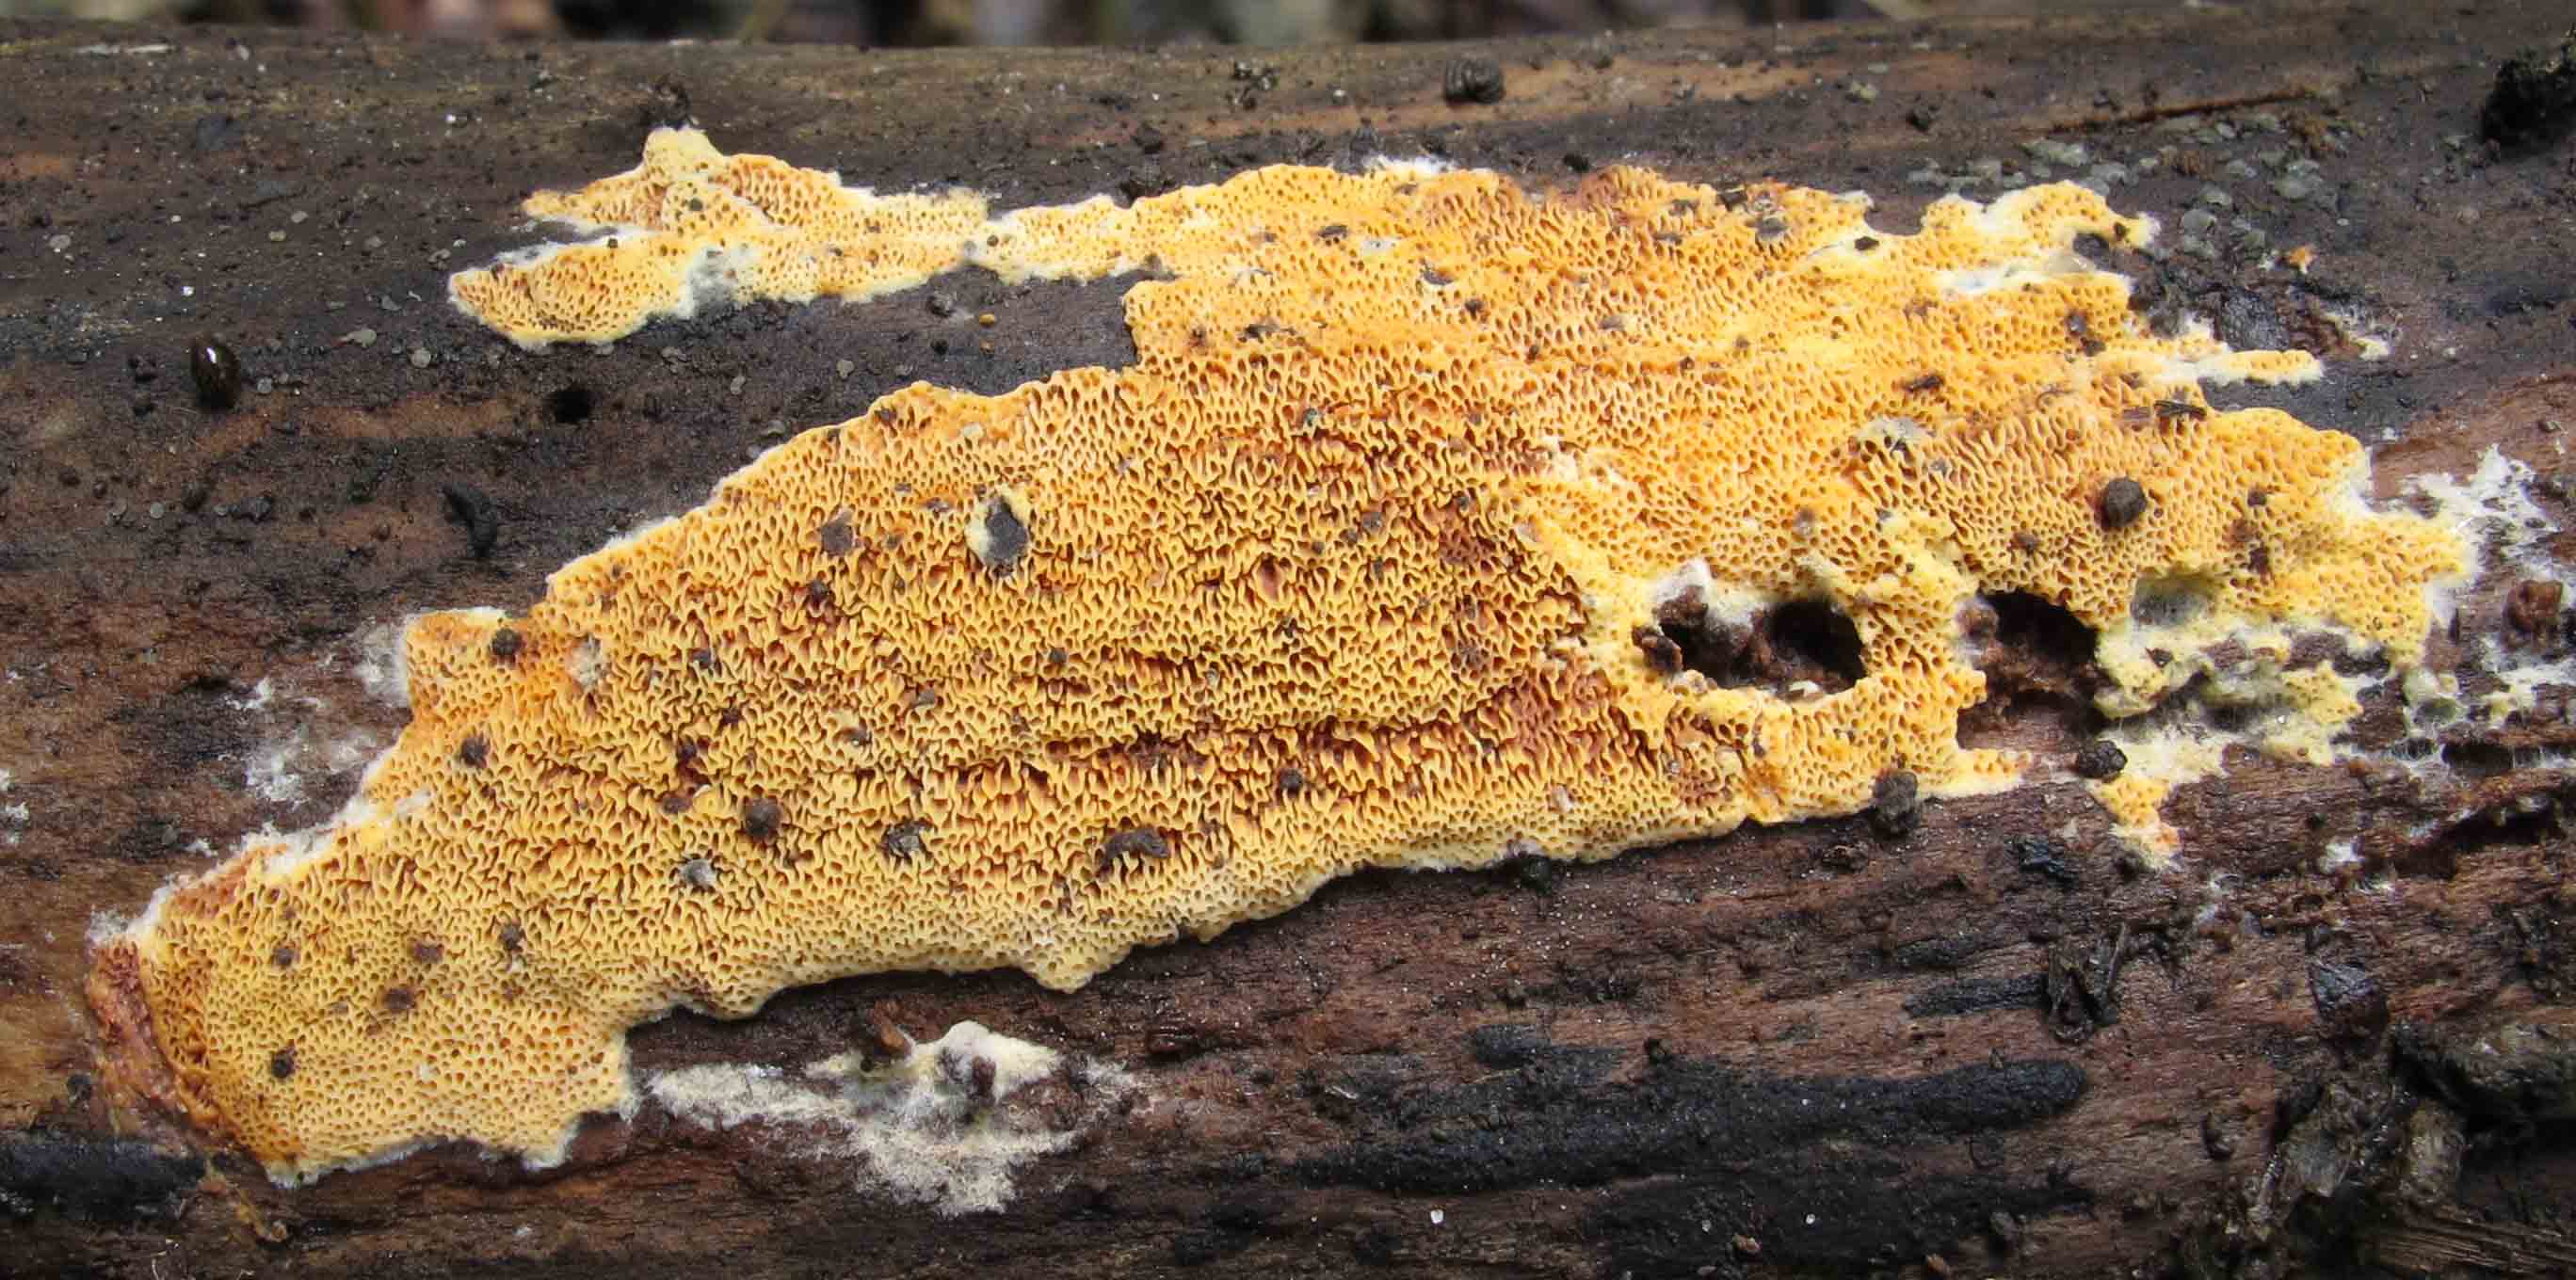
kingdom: Fungi
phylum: Basidiomycota
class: Agaricomycetes
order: Polyporales
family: Irpicaceae
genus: Ceriporia
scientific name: Ceriporia purpurea
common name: purpur-voksporesvamp
